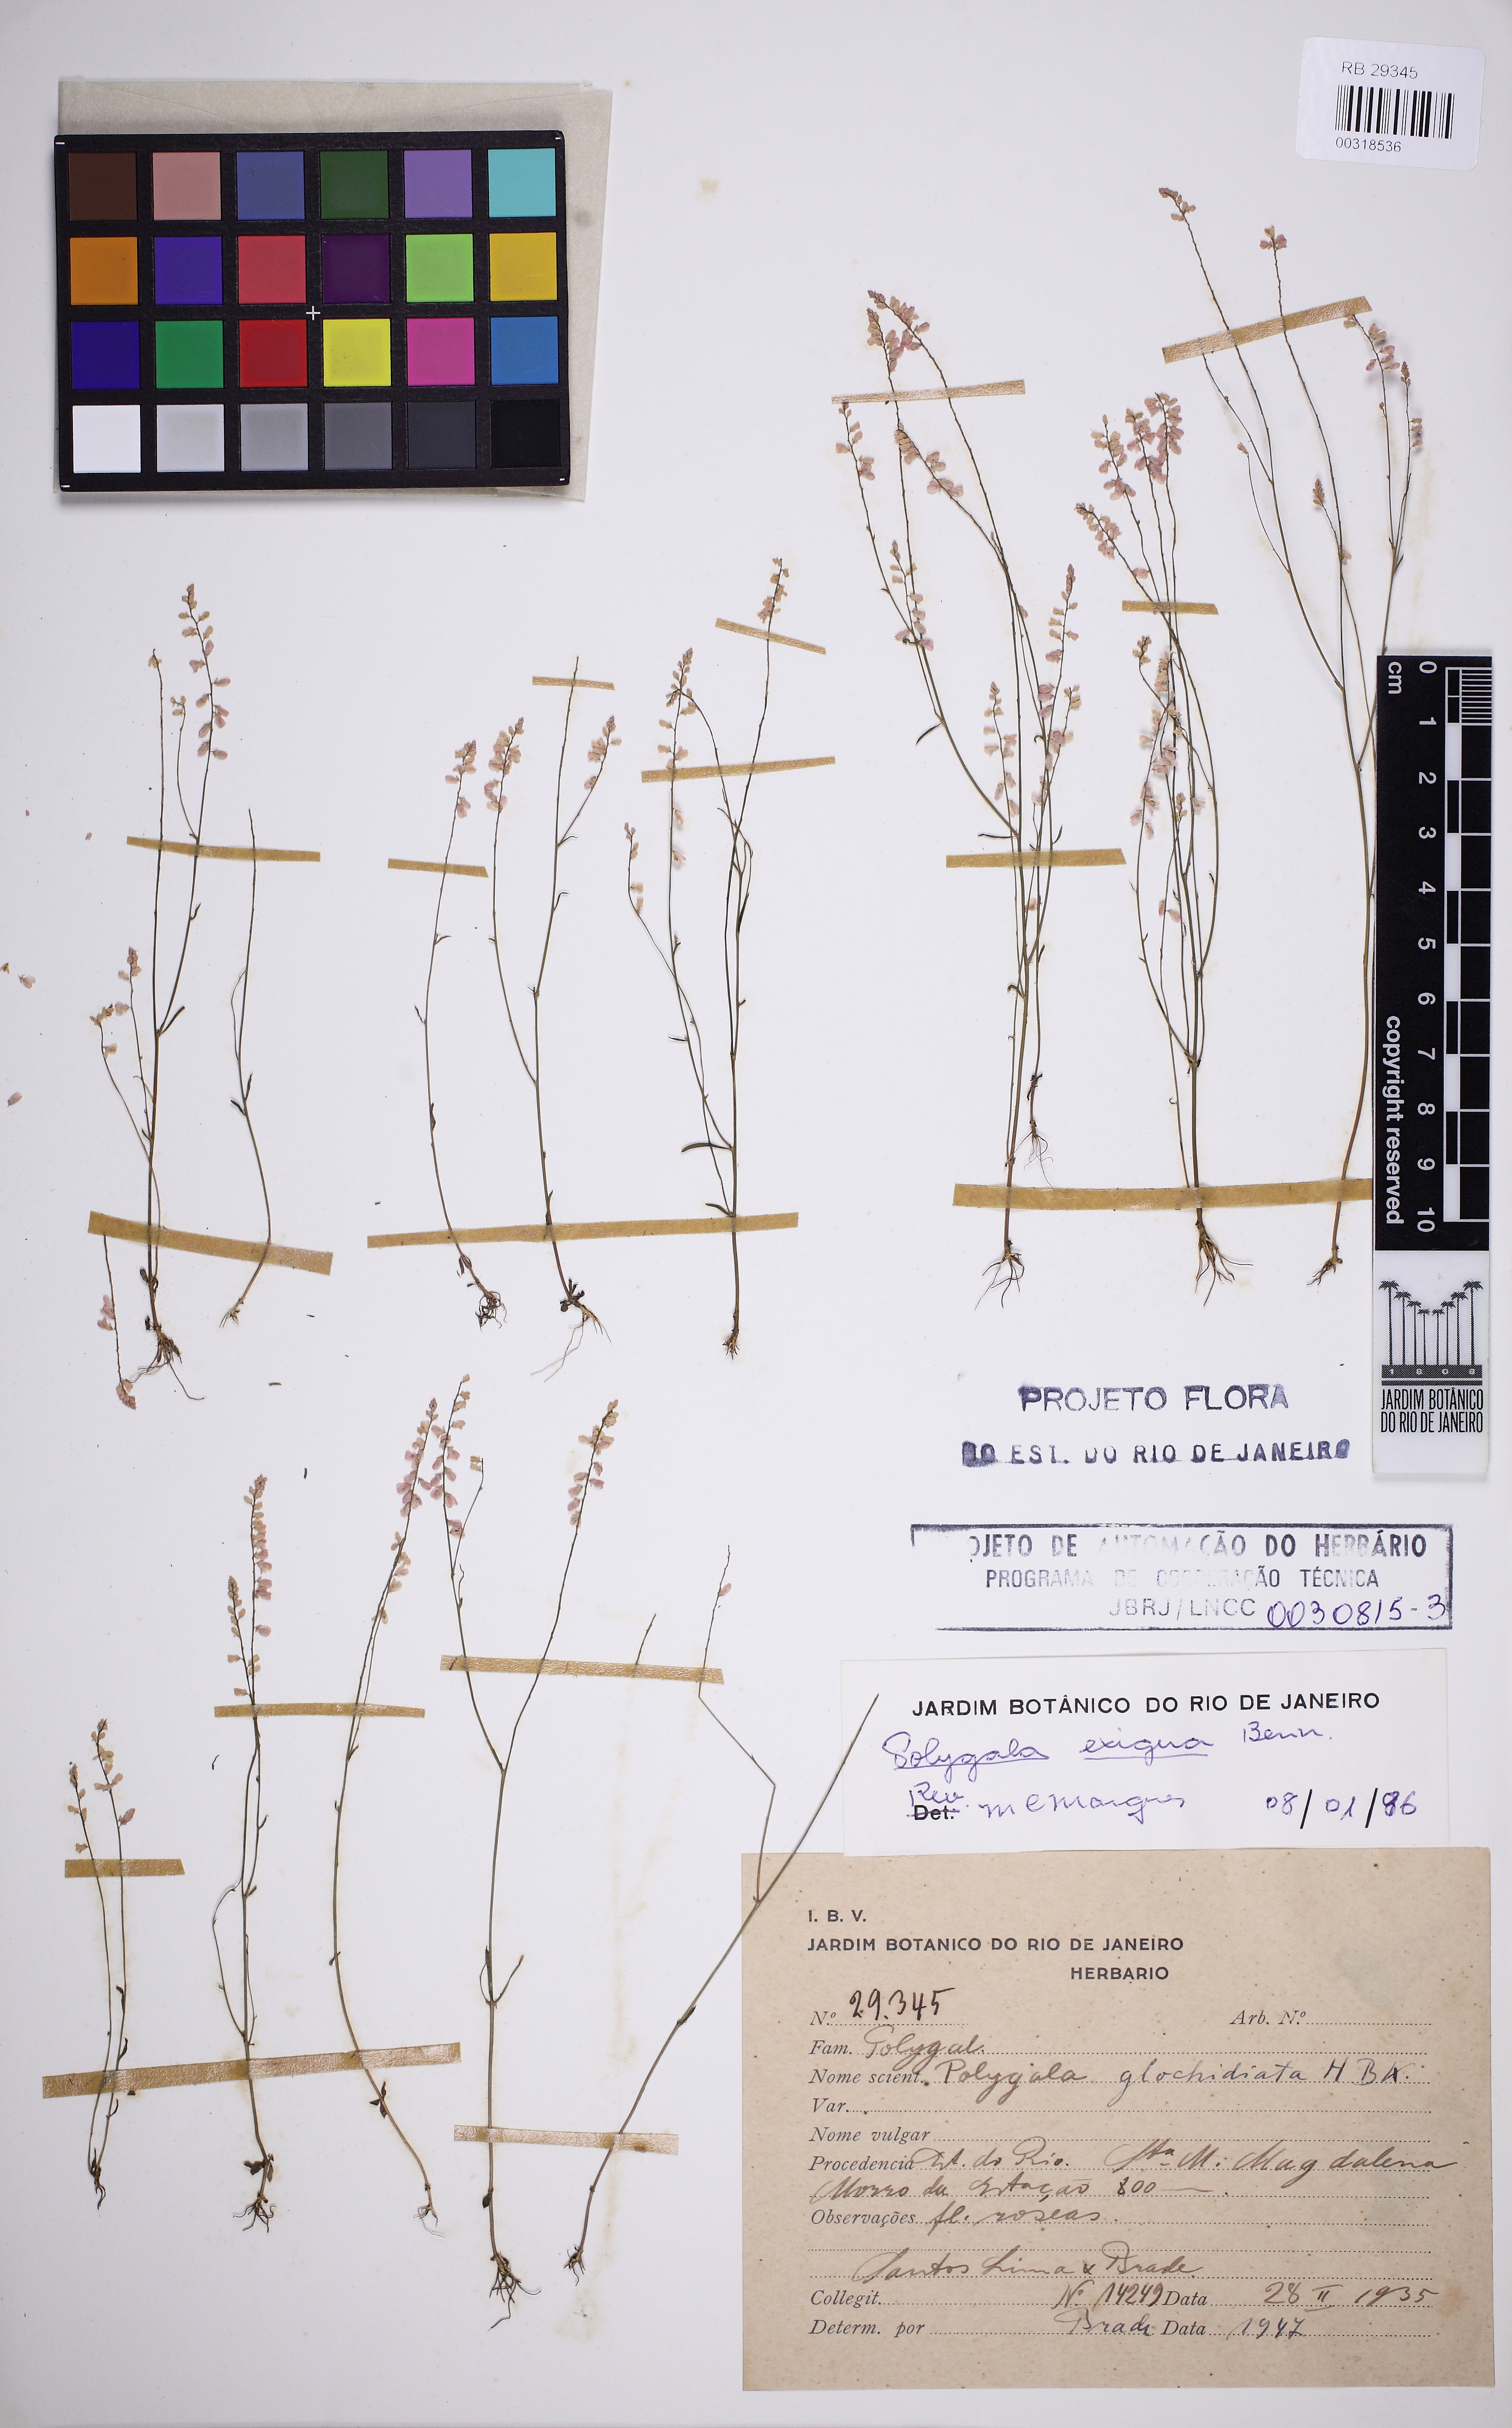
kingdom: Plantae
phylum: Tracheophyta
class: Magnoliopsida
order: Fabales
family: Polygalaceae
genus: Polygala
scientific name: Polygala
